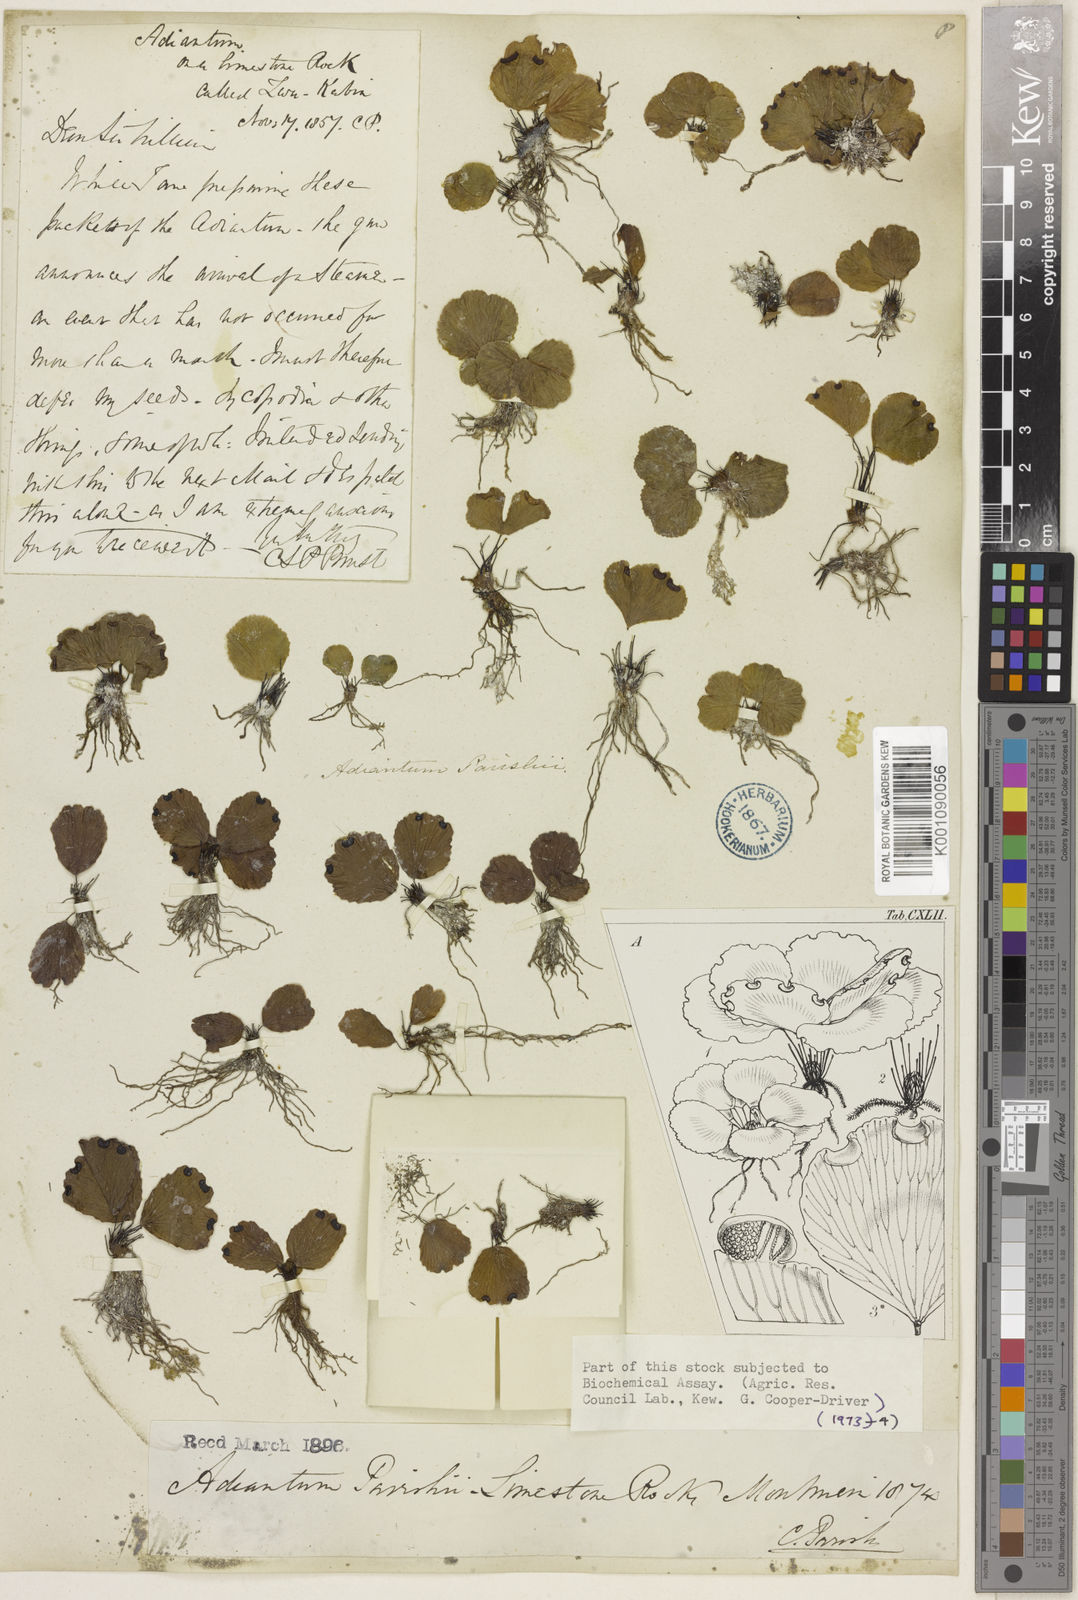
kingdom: Plantae
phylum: Tracheophyta
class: Polypodiopsida
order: Polypodiales
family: Pteridaceae
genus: Adiantum
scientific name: Adiantum parishii
